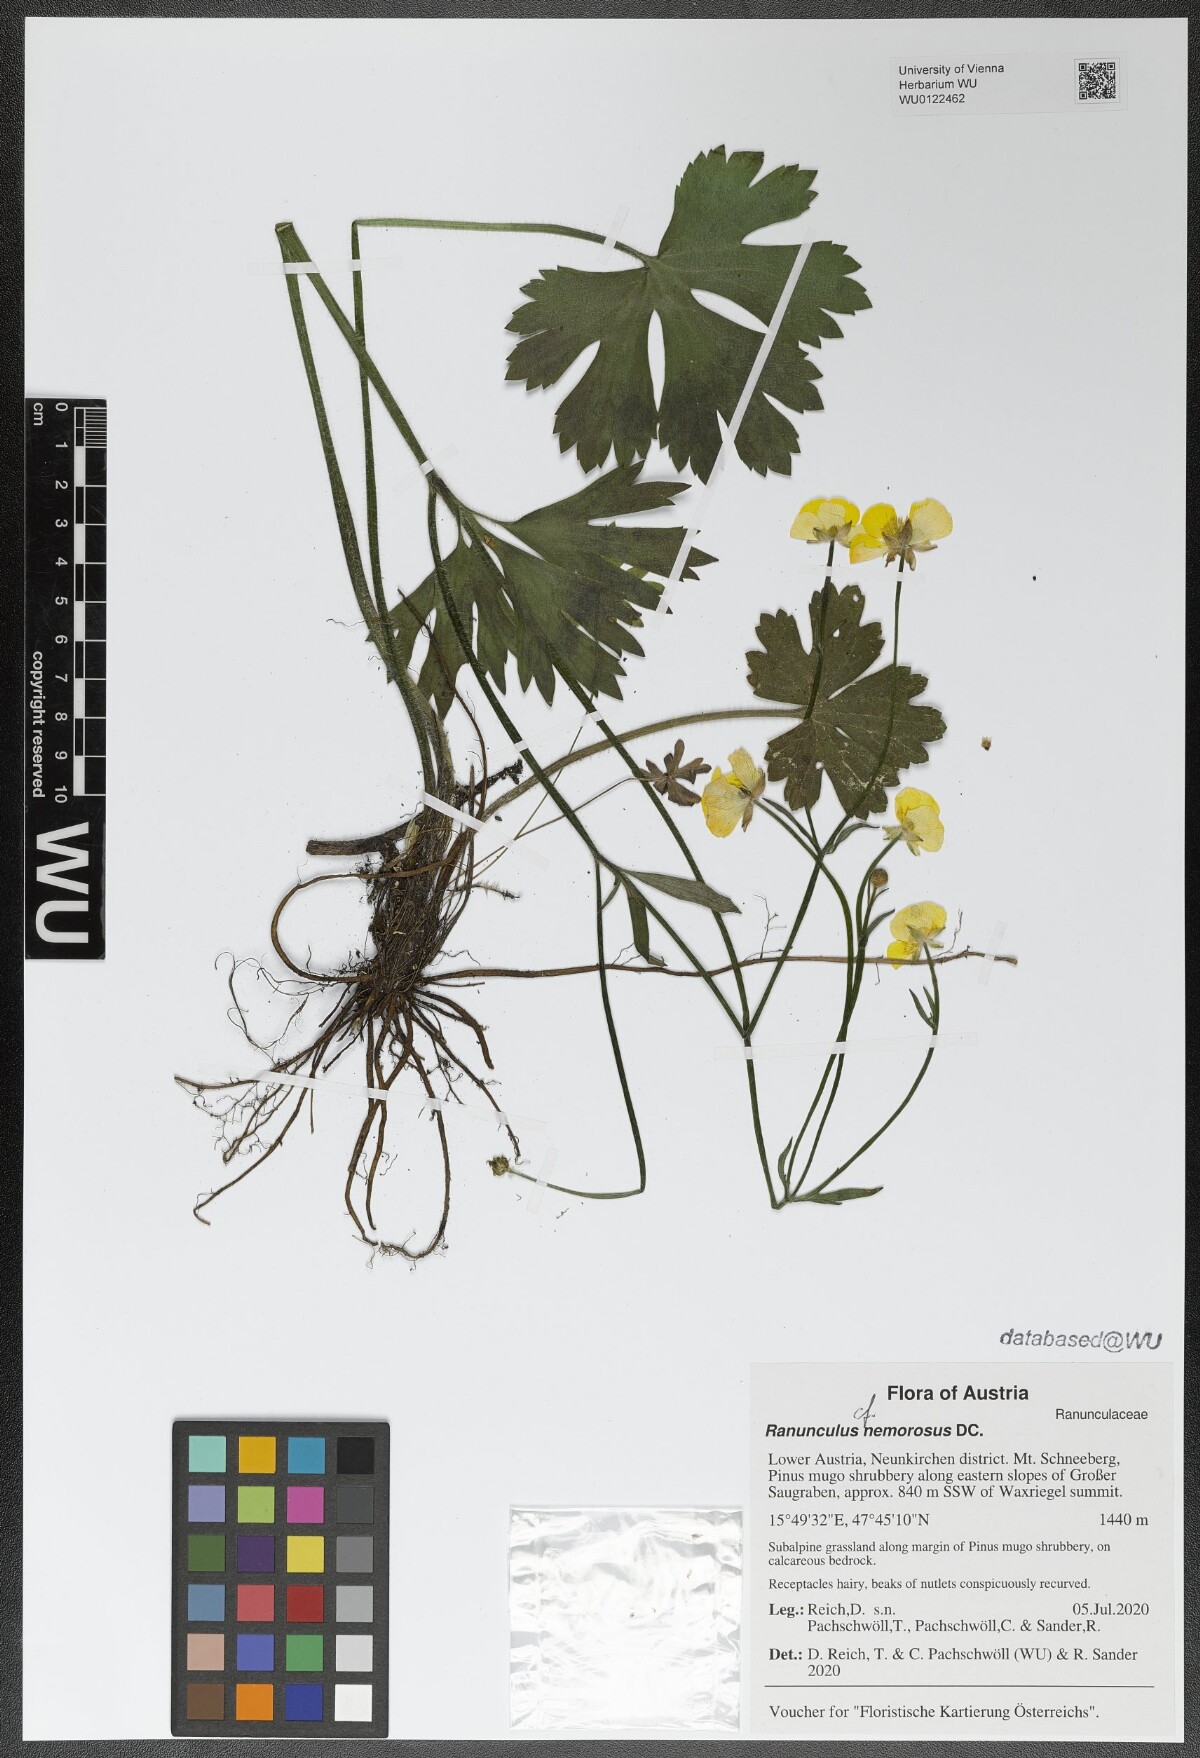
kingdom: Plantae
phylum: Tracheophyta
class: Magnoliopsida
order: Ranunculales
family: Ranunculaceae
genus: Ranunculus
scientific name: Ranunculus polyanthemos
